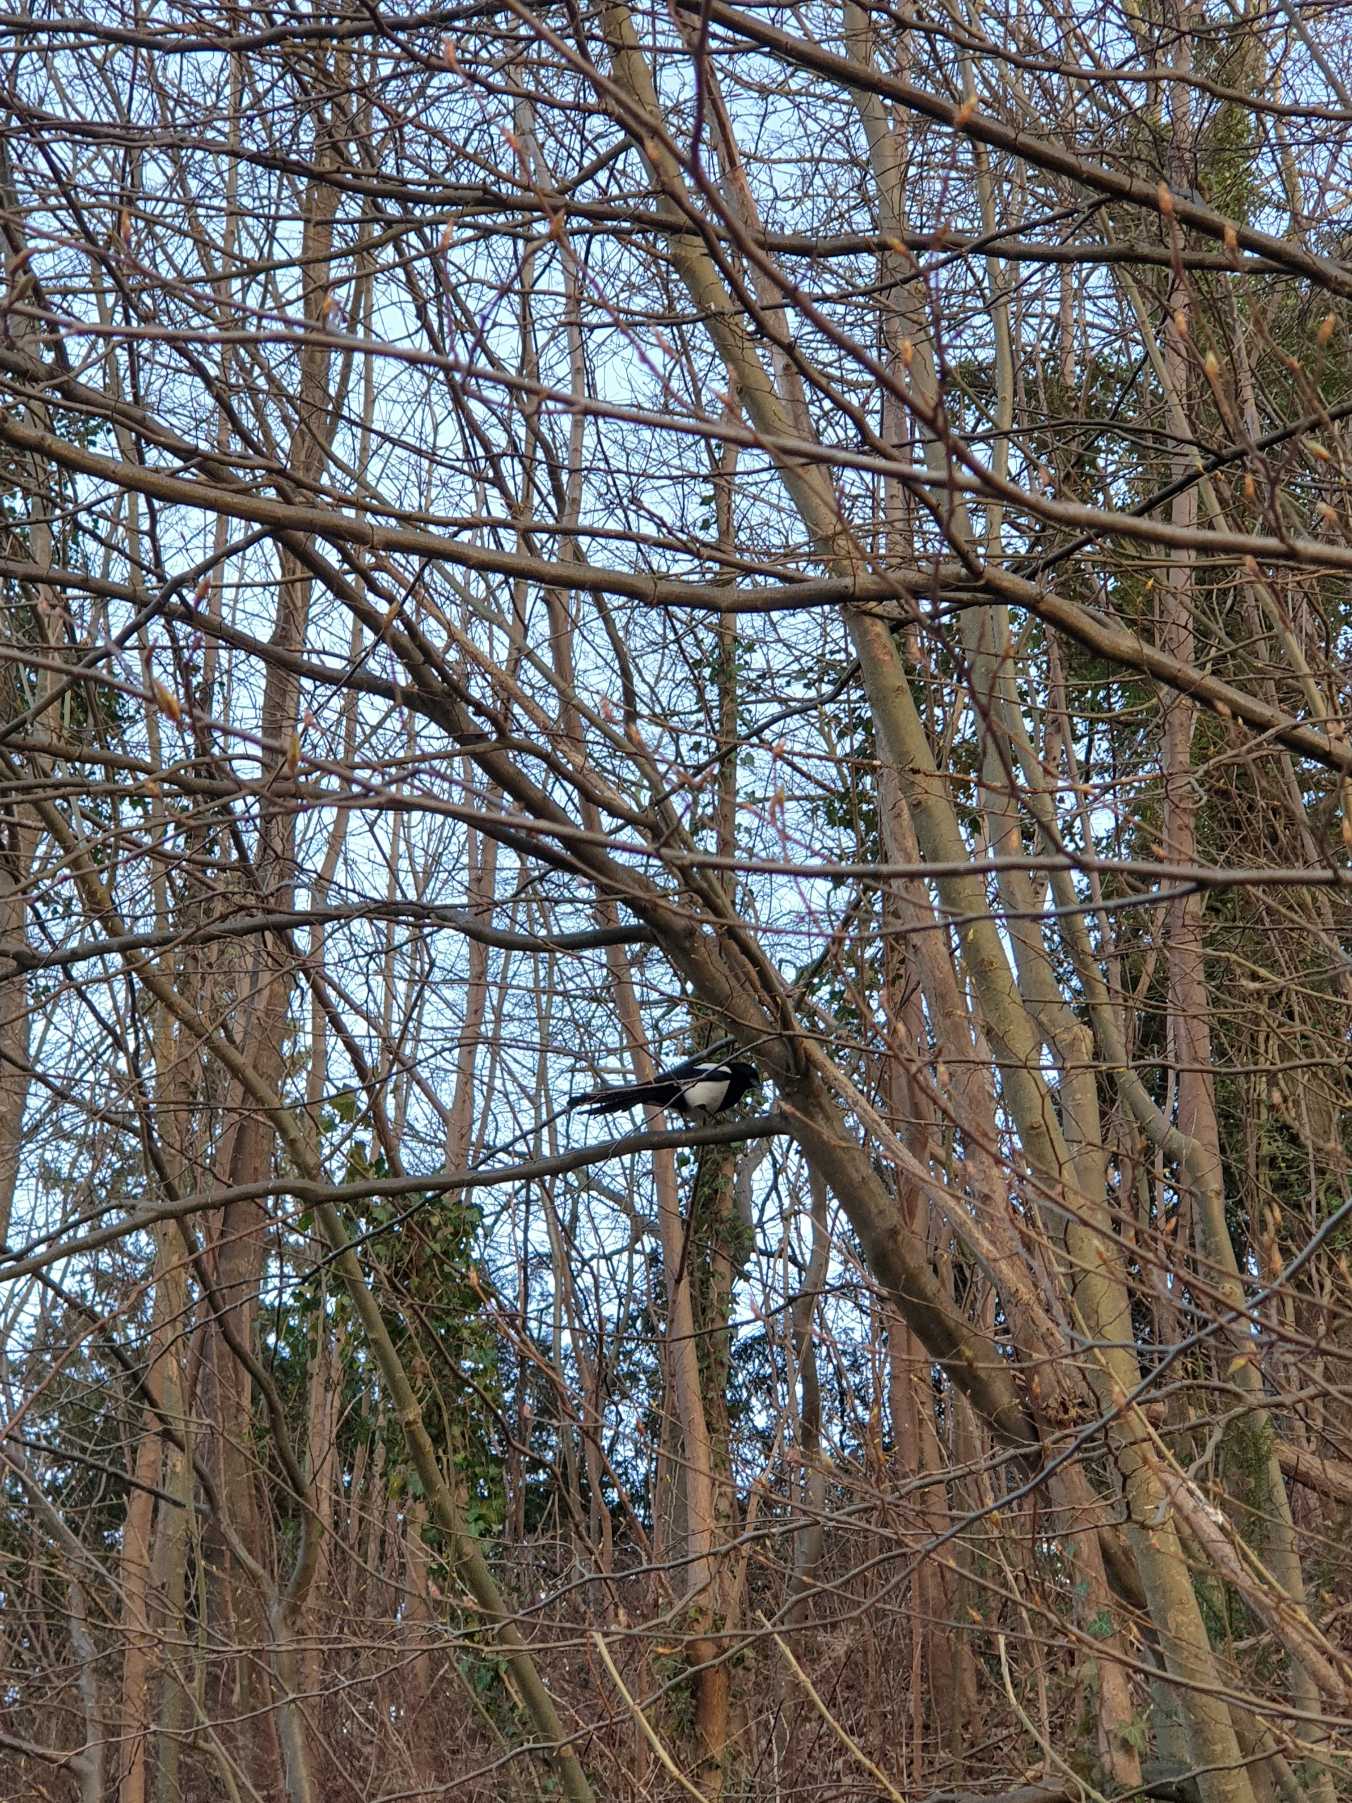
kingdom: Animalia
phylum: Chordata
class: Aves
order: Passeriformes
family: Corvidae
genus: Pica
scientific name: Pica pica
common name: Husskade
